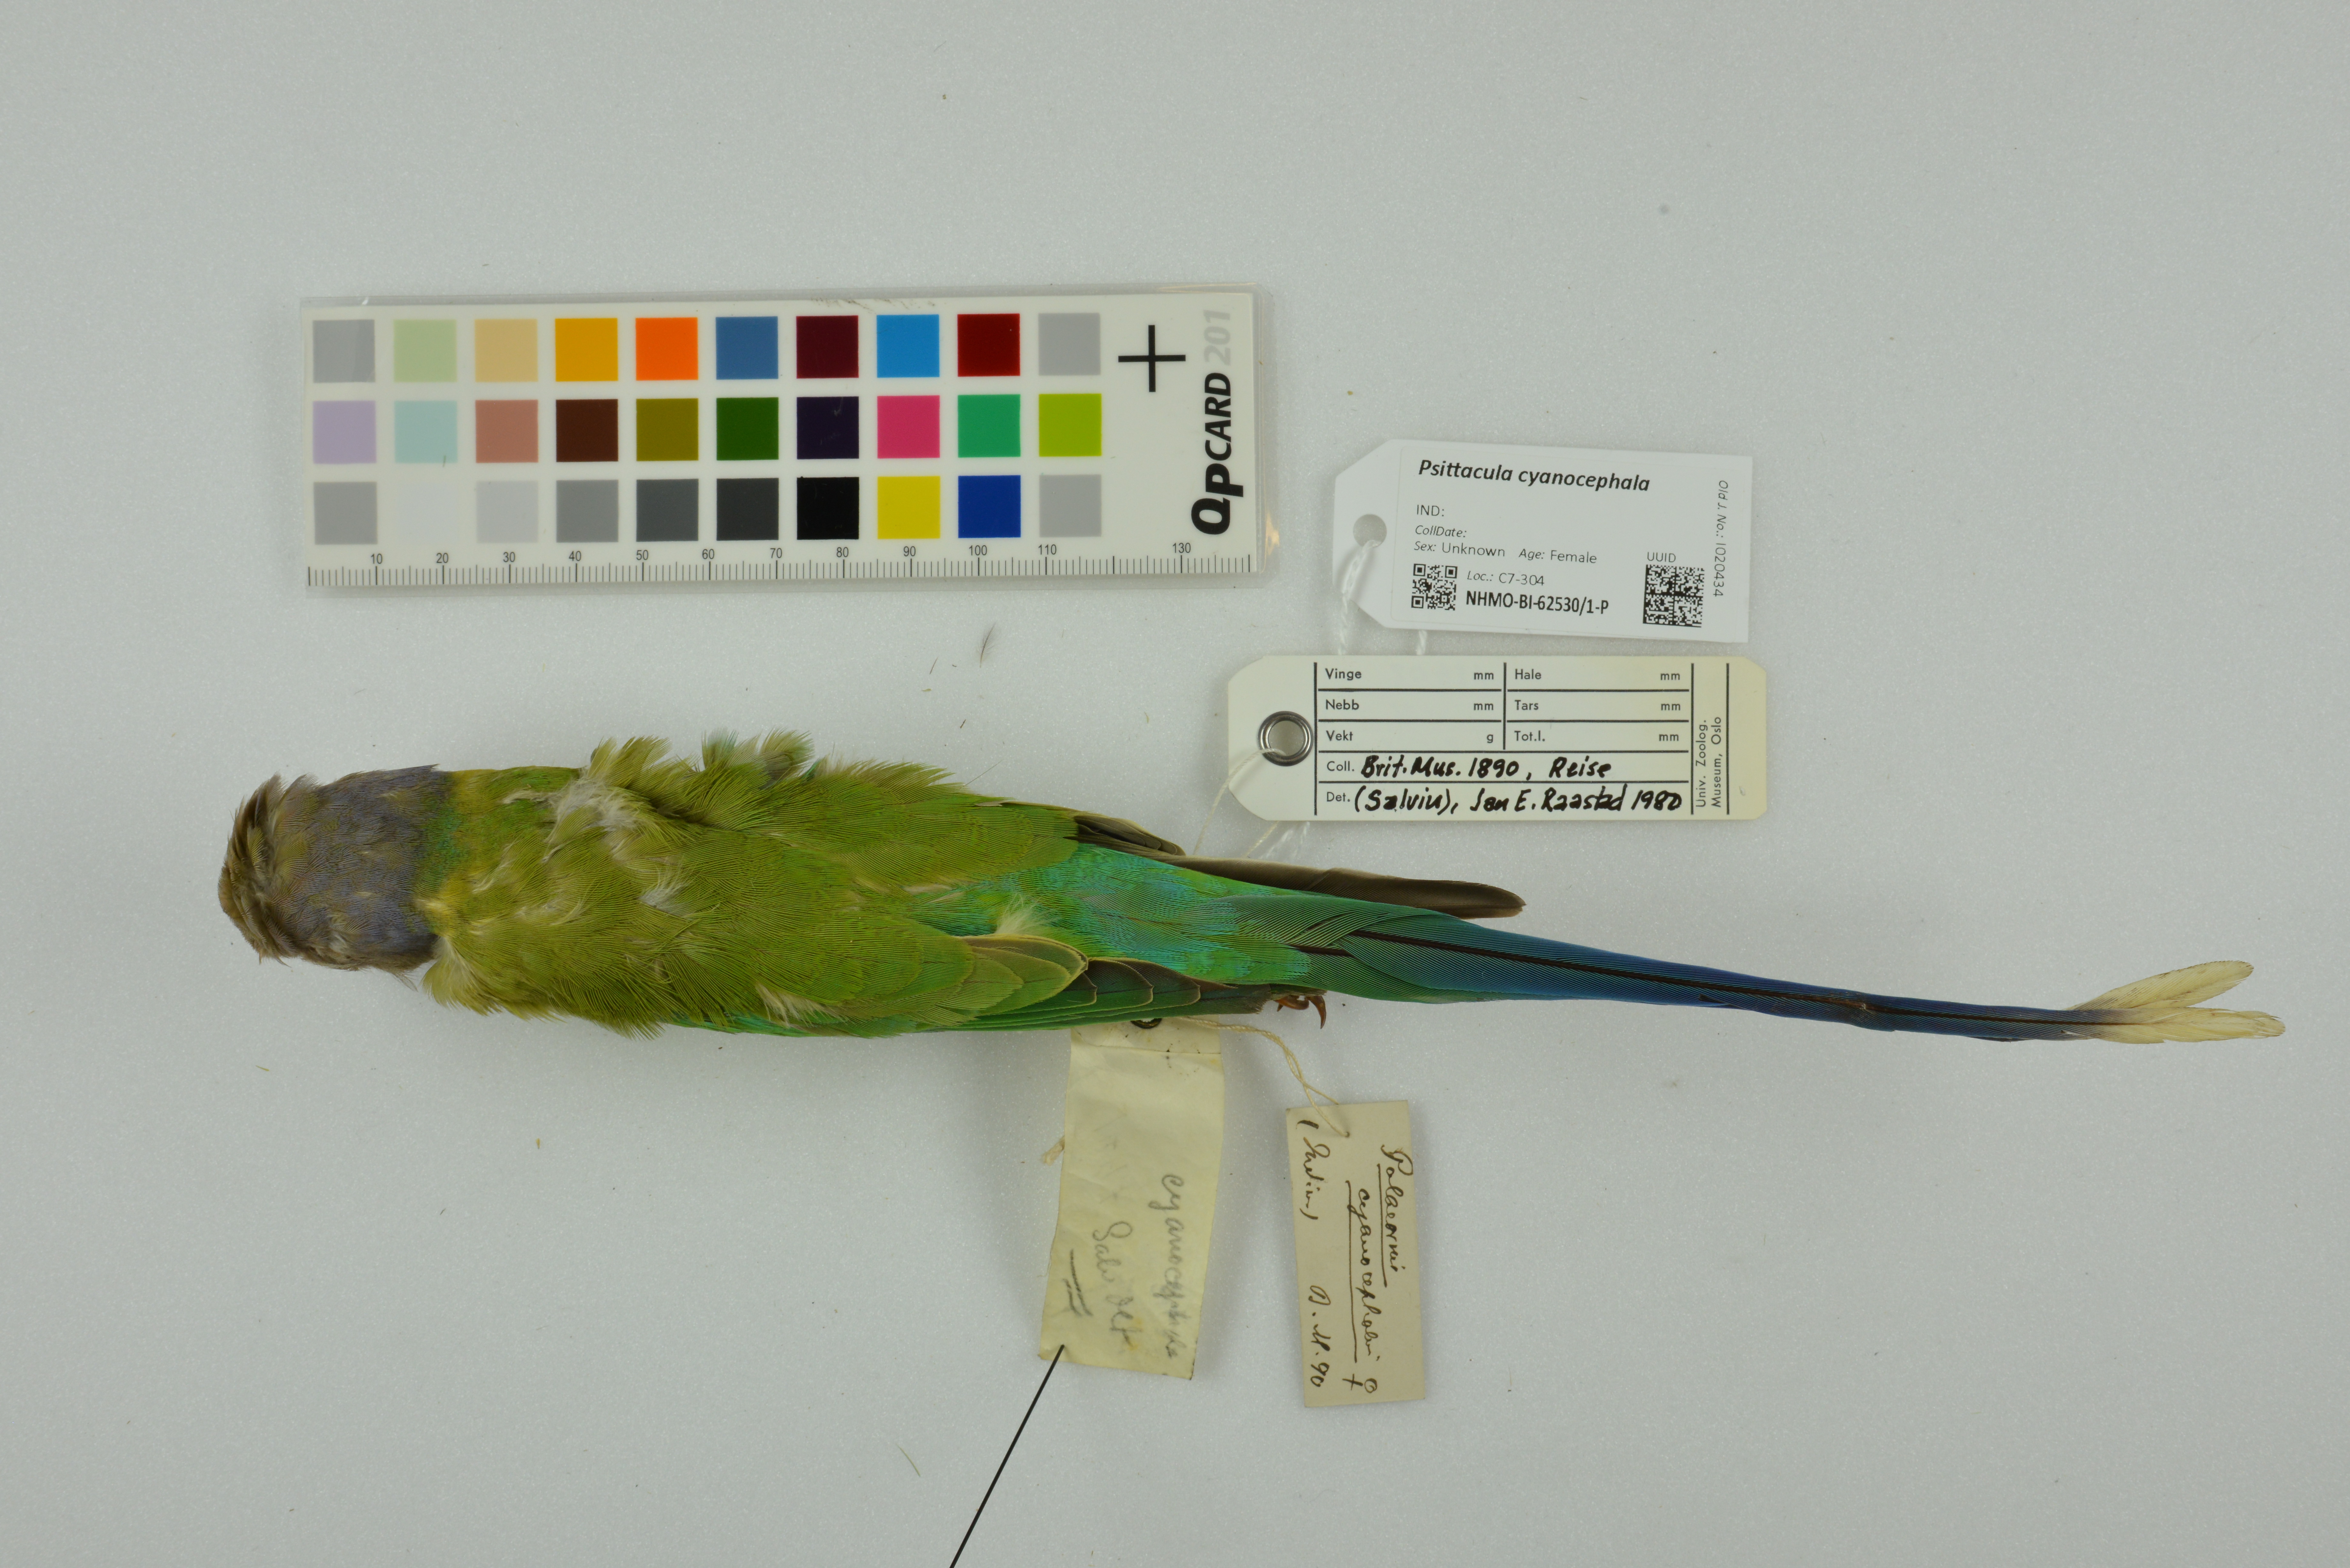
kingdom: Animalia
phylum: Chordata
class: Aves
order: Psittaciformes
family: Psittacidae
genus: Psittacula
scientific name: Psittacula cyanocephala
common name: Plum-headed parakeet
